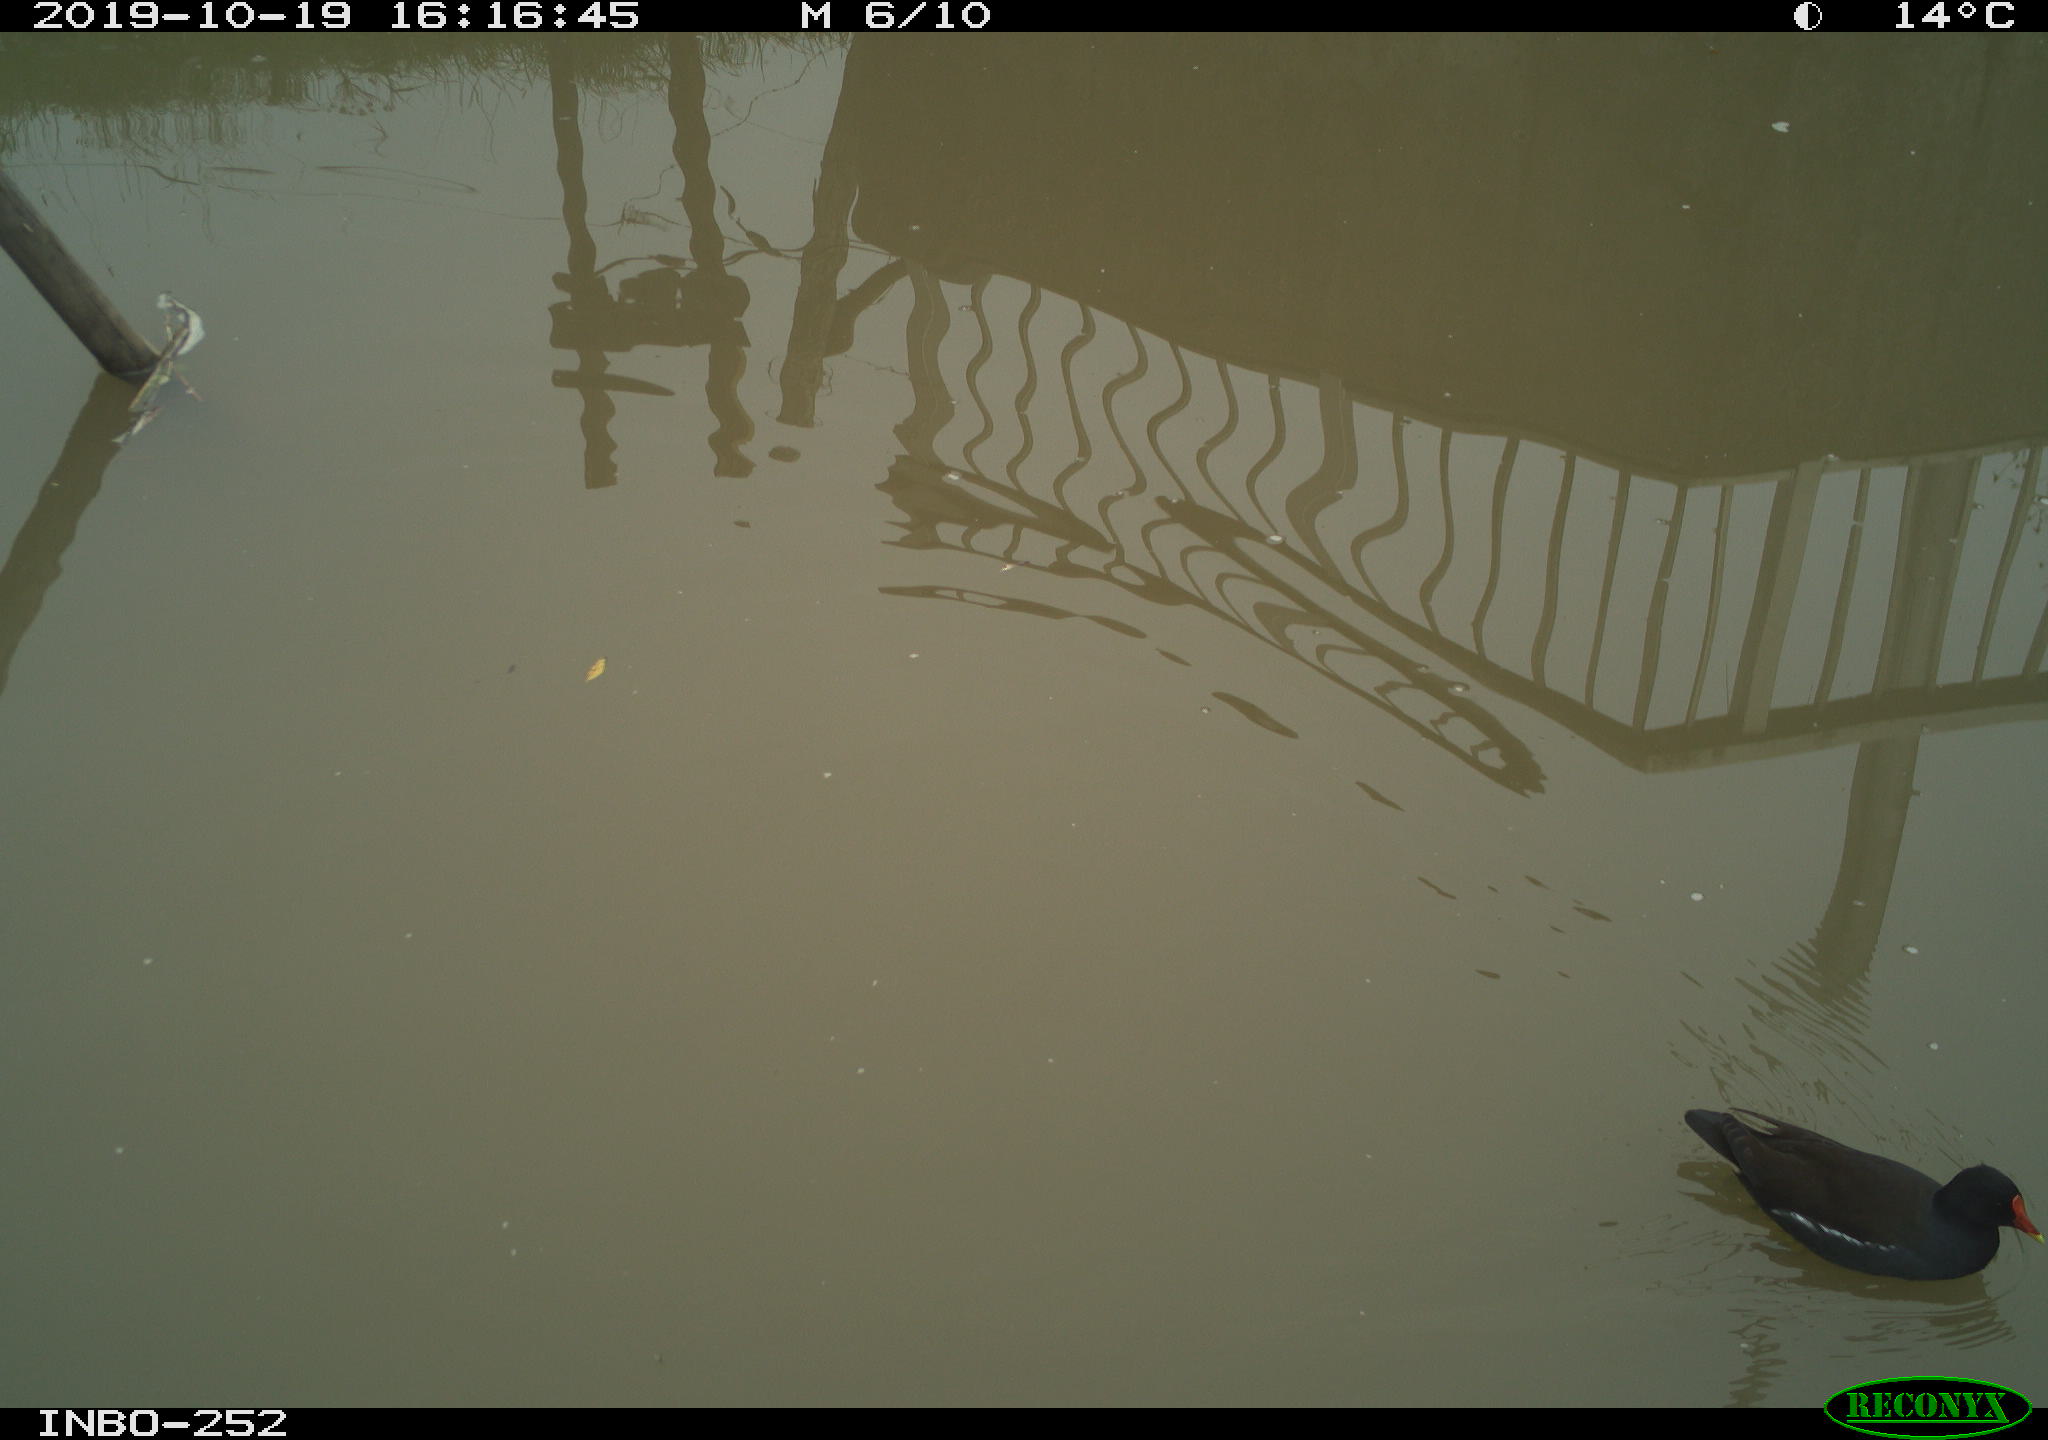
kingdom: Animalia
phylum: Chordata
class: Aves
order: Gruiformes
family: Rallidae
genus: Gallinula
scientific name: Gallinula chloropus
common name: Common moorhen
